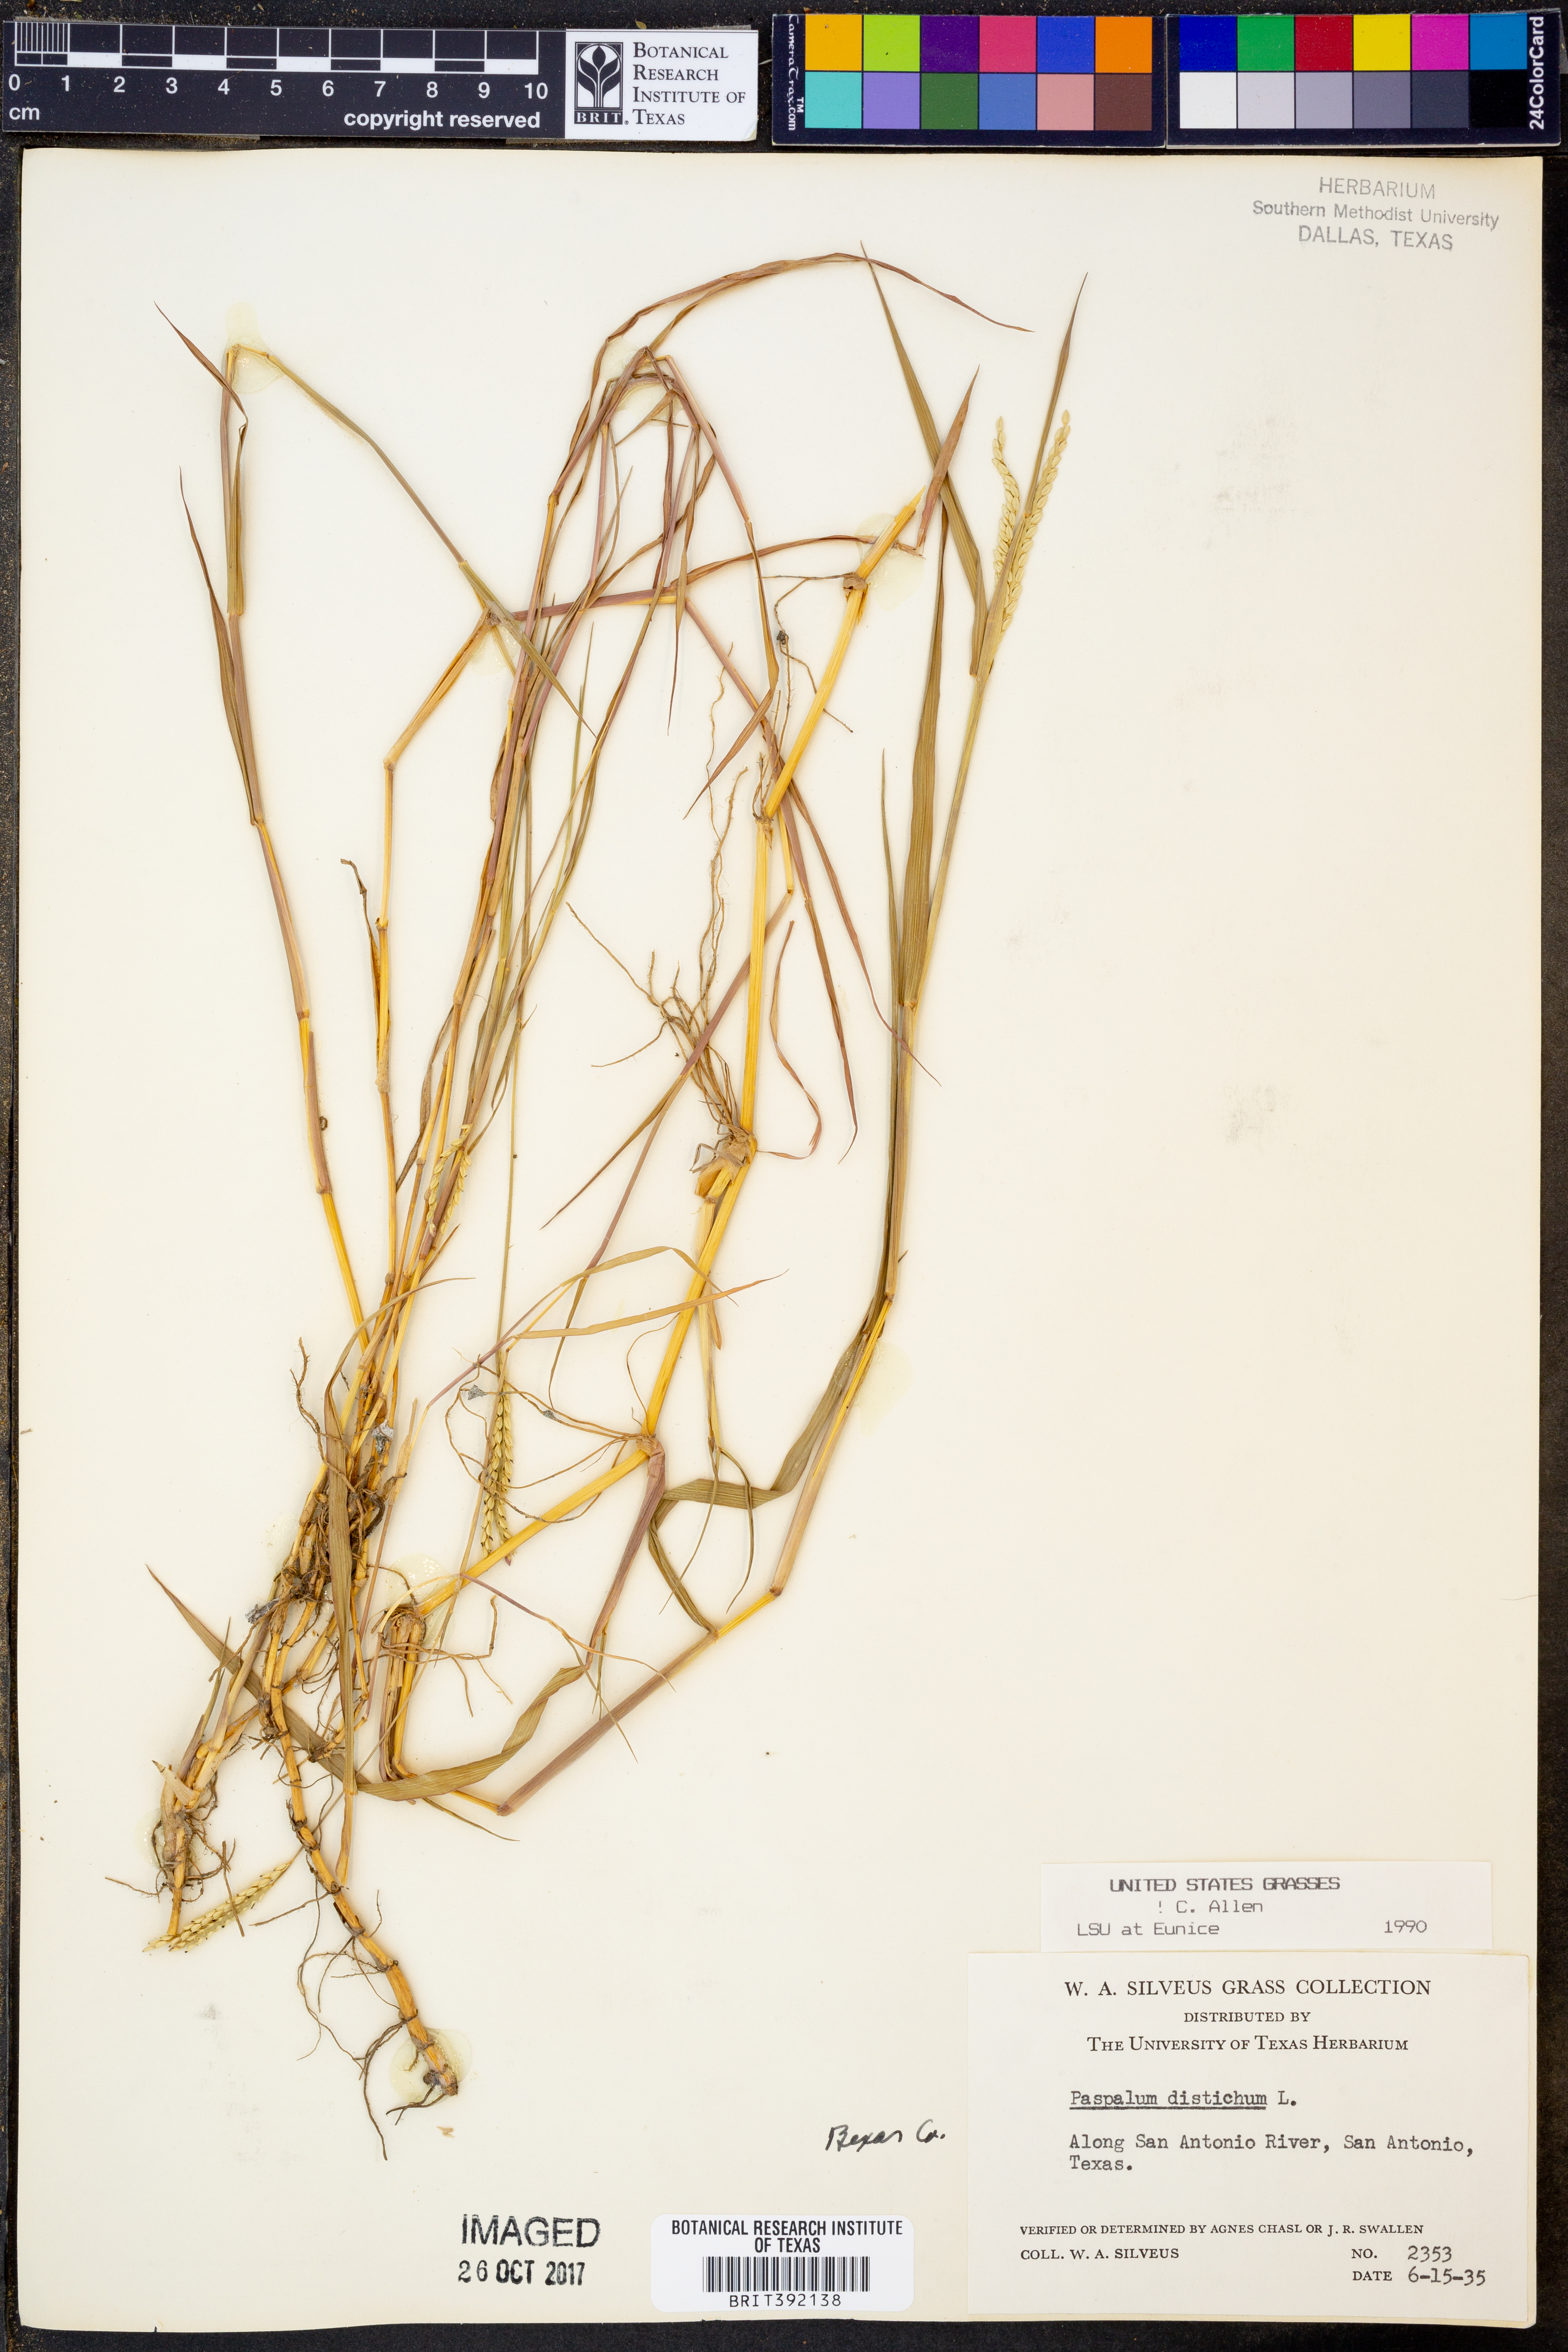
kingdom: Plantae
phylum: Tracheophyta
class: Liliopsida
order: Poales
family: Poaceae
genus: Paspalum
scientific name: Paspalum distichum
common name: Knotgrass
